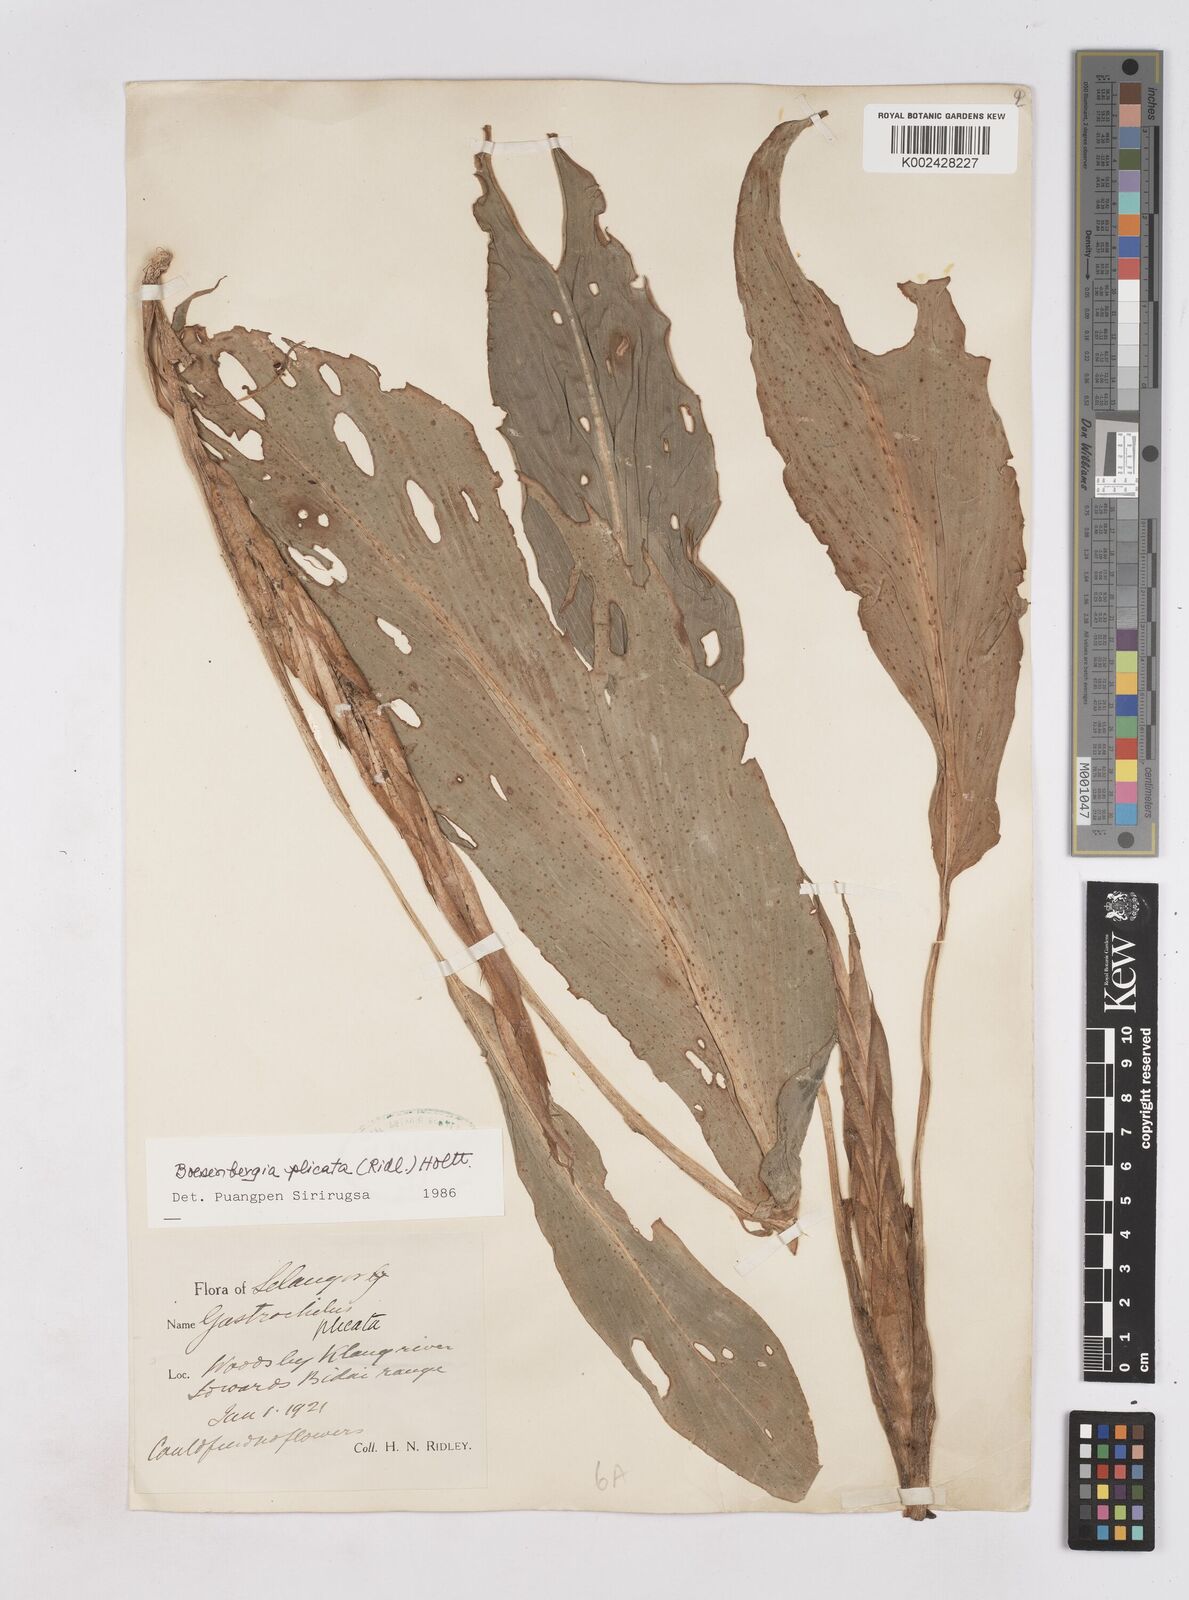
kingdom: Plantae
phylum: Tracheophyta
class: Liliopsida
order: Zingiberales
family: Zingiberaceae
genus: Boesenbergia
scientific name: Boesenbergia plicata
